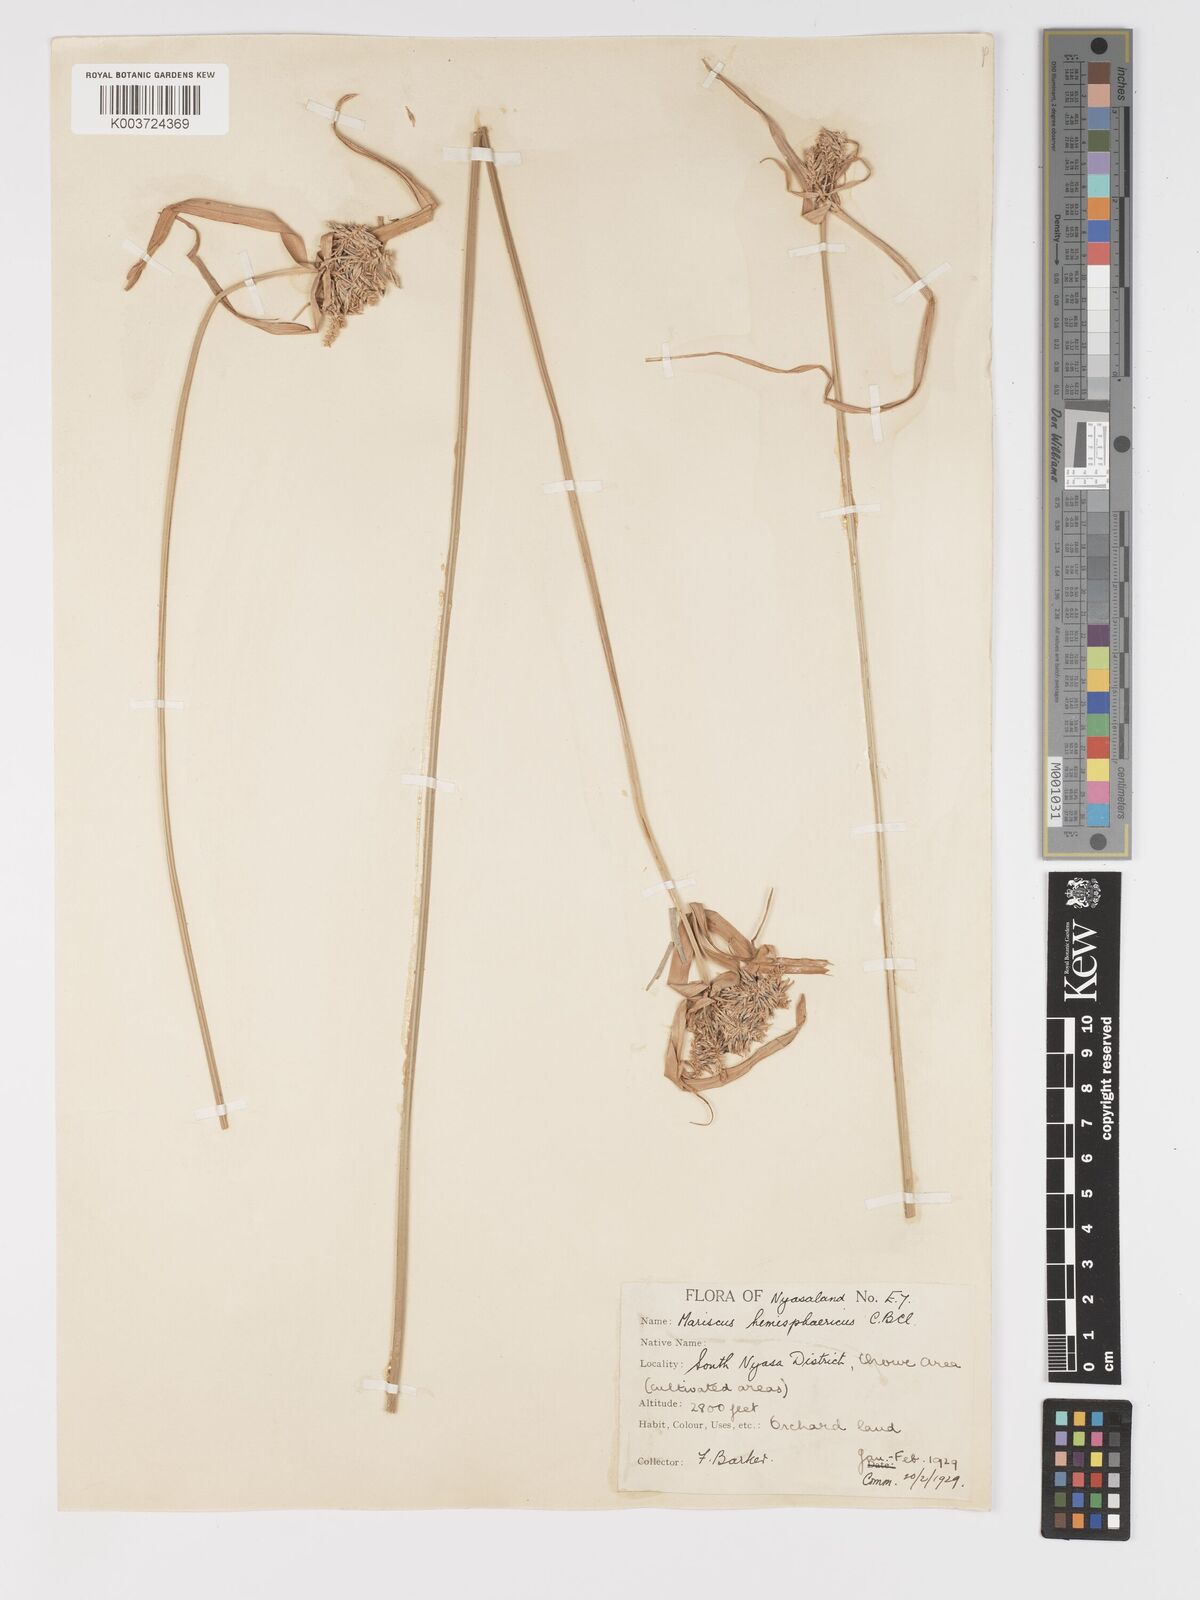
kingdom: Plantae
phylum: Tracheophyta
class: Liliopsida
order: Poales
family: Cyperaceae
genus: Cyperus
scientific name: Cyperus hemisphaericus
